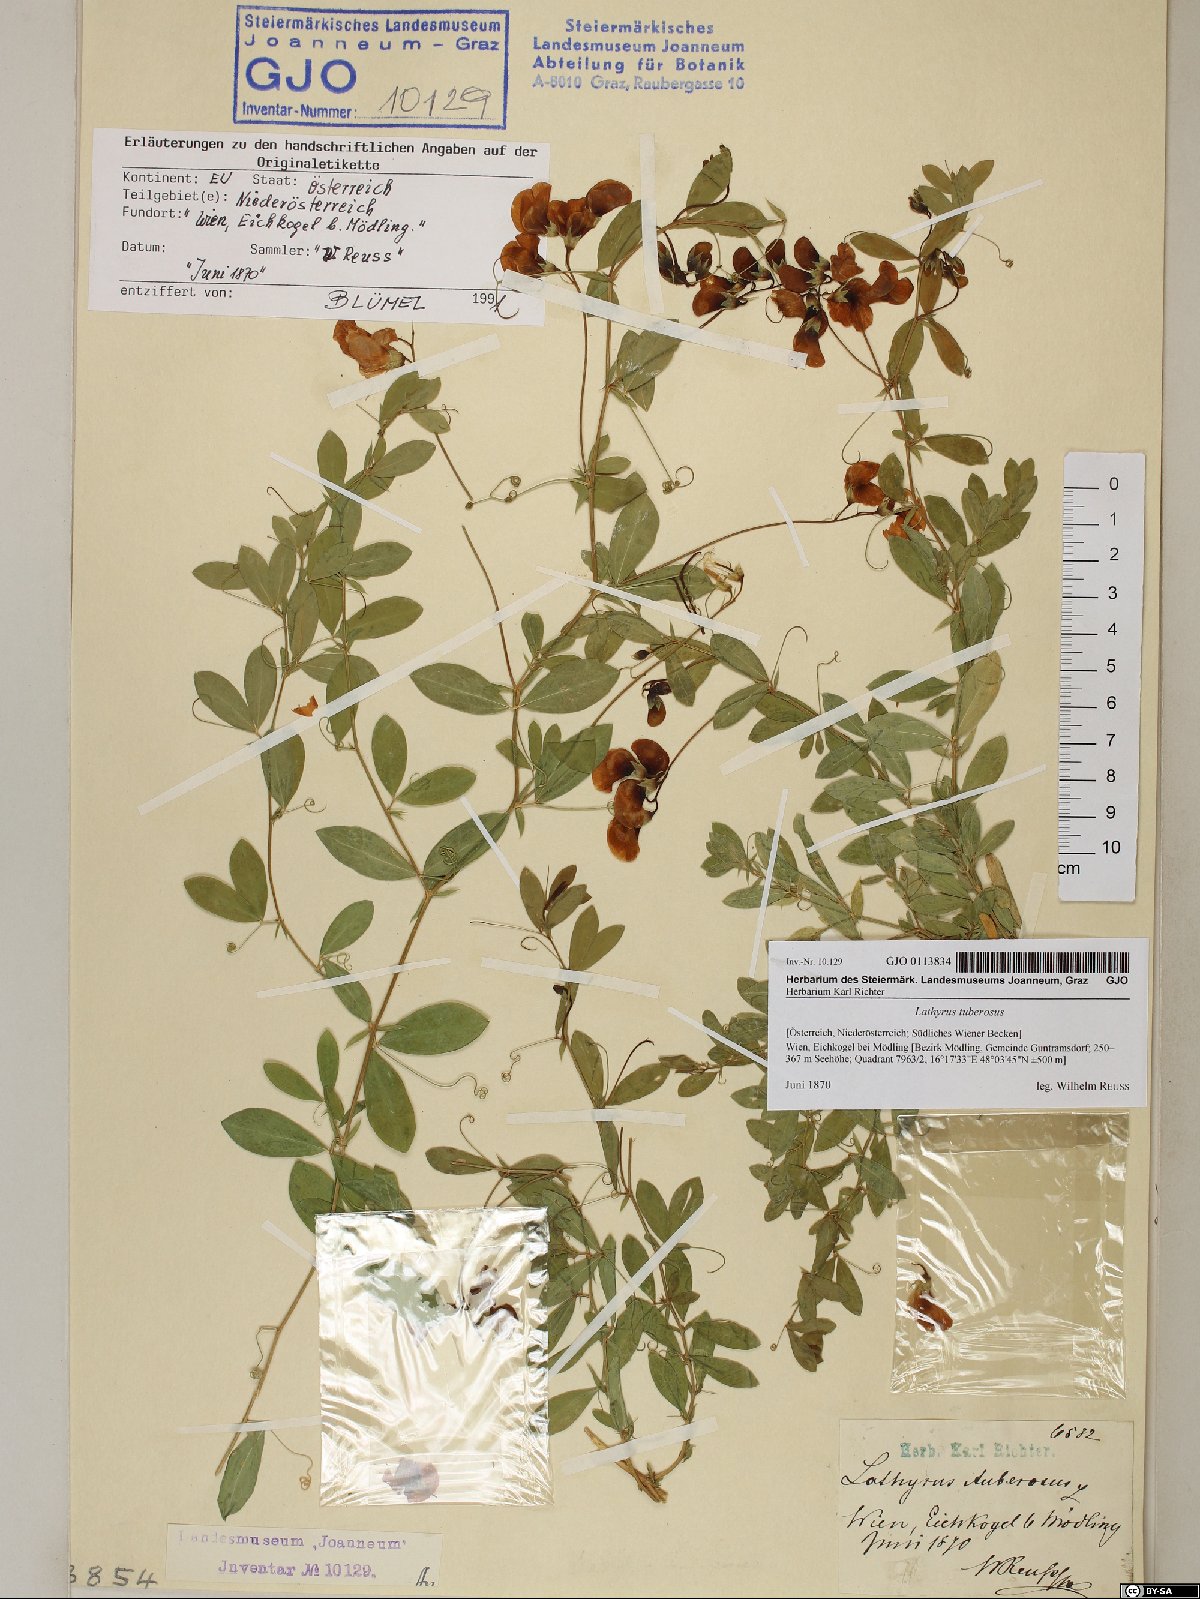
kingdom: Plantae
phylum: Tracheophyta
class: Magnoliopsida
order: Fabales
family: Fabaceae
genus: Lathyrus
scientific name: Lathyrus tuberosus
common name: Tuberous pea
